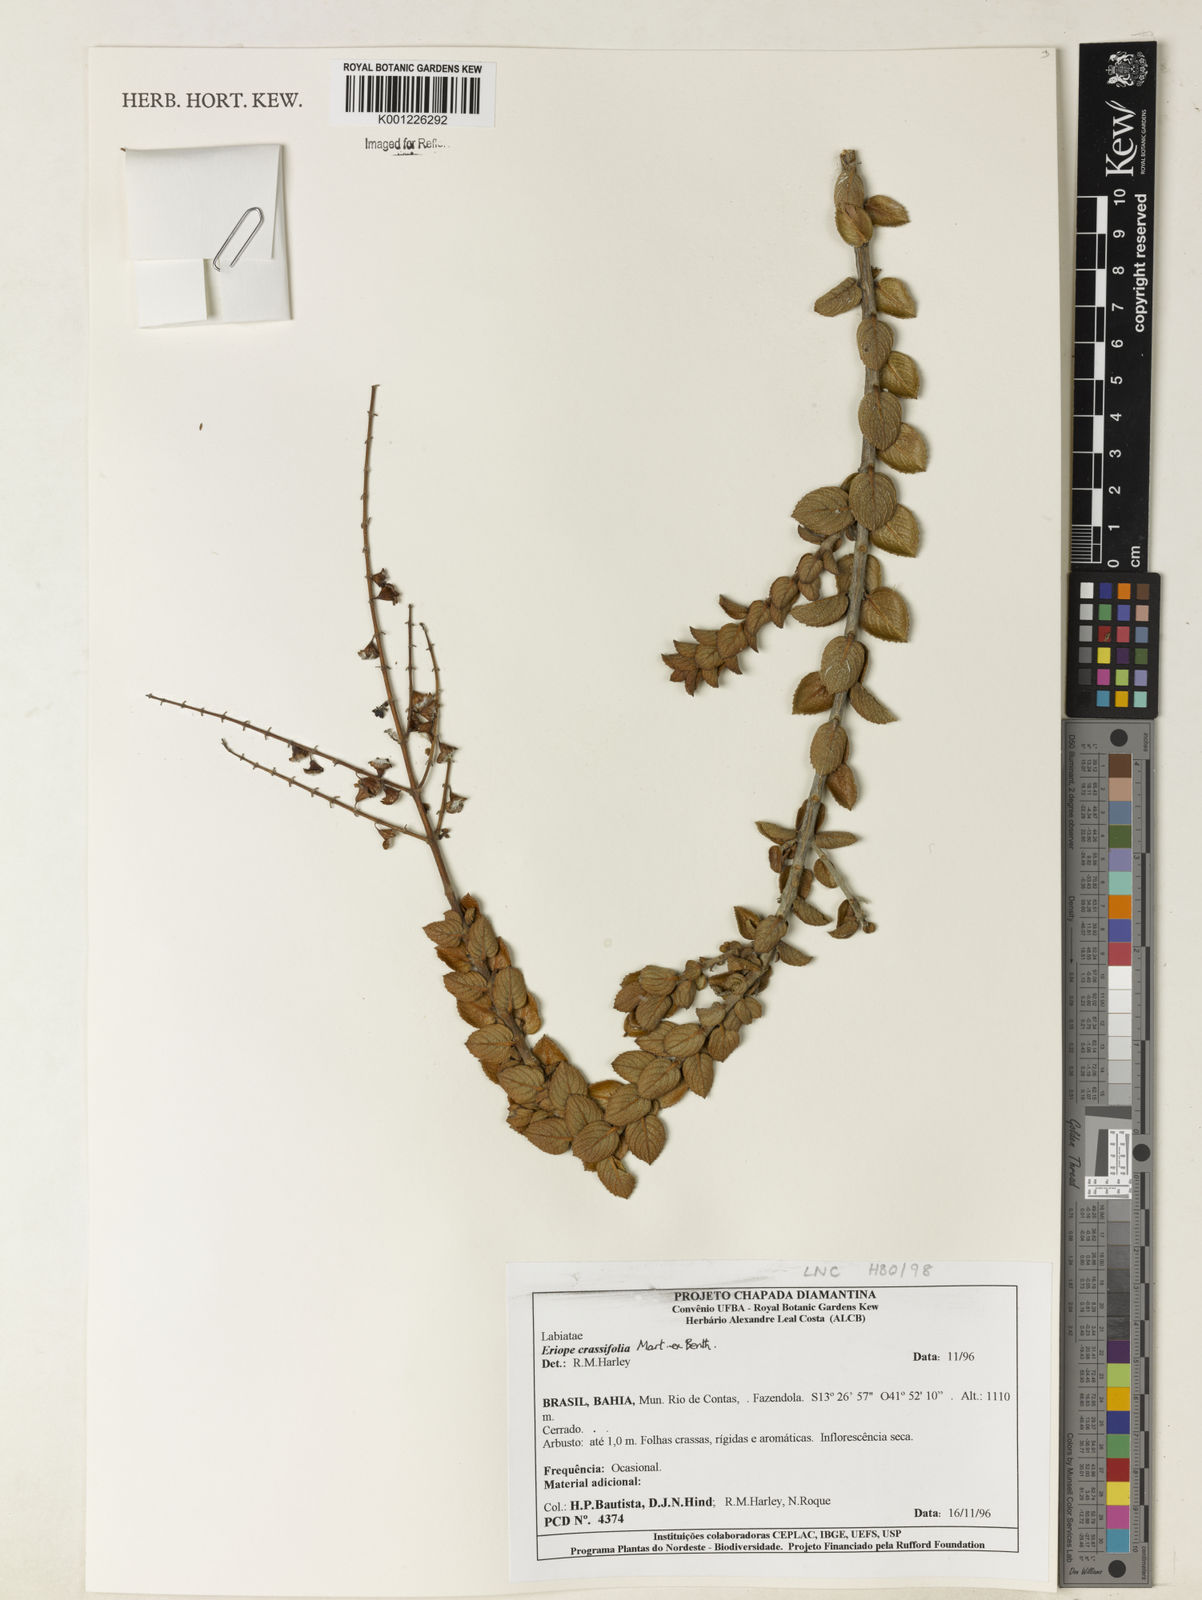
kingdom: Plantae
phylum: Tracheophyta
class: Magnoliopsida
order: Lamiales
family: Lamiaceae
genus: Eriope
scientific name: Eriope crassifolia
